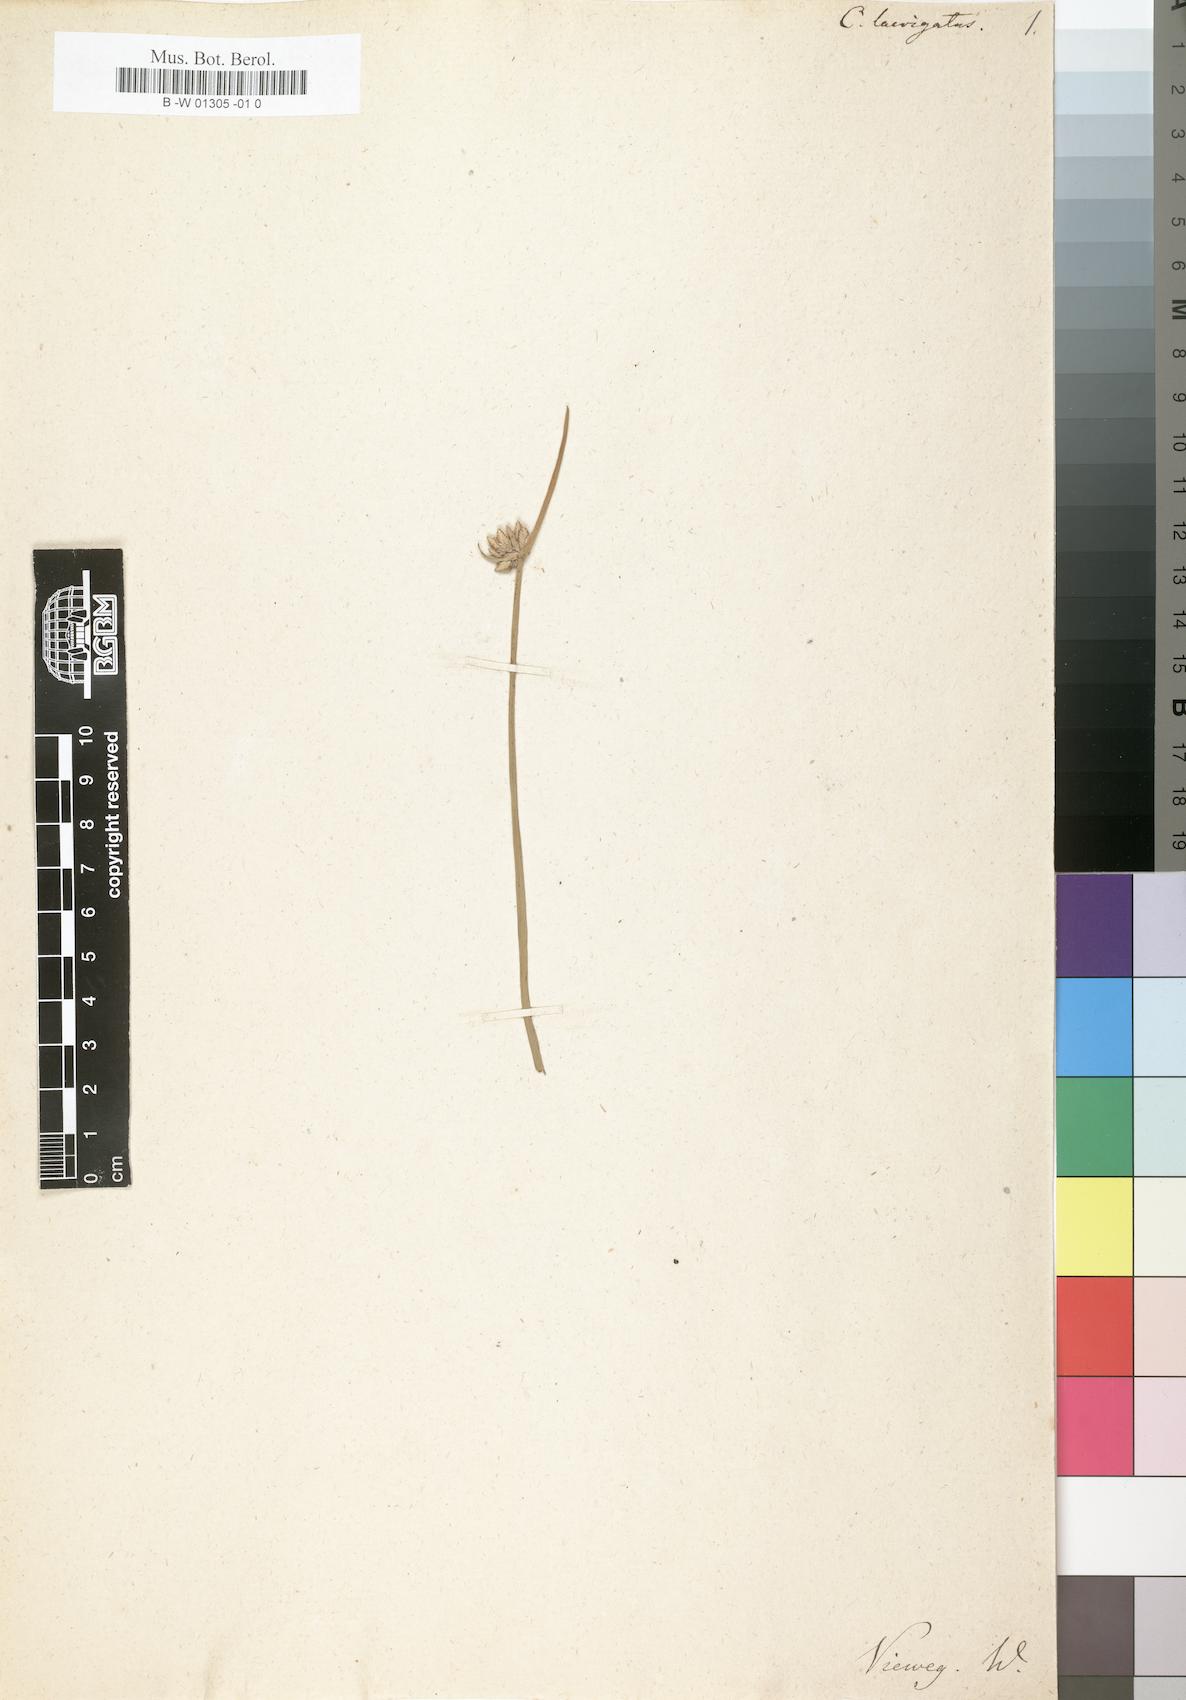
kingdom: Plantae
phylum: Tracheophyta
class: Liliopsida
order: Poales
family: Cyperaceae
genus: Cyperus
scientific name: Cyperus laevigatus
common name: Smooth flat sedge
